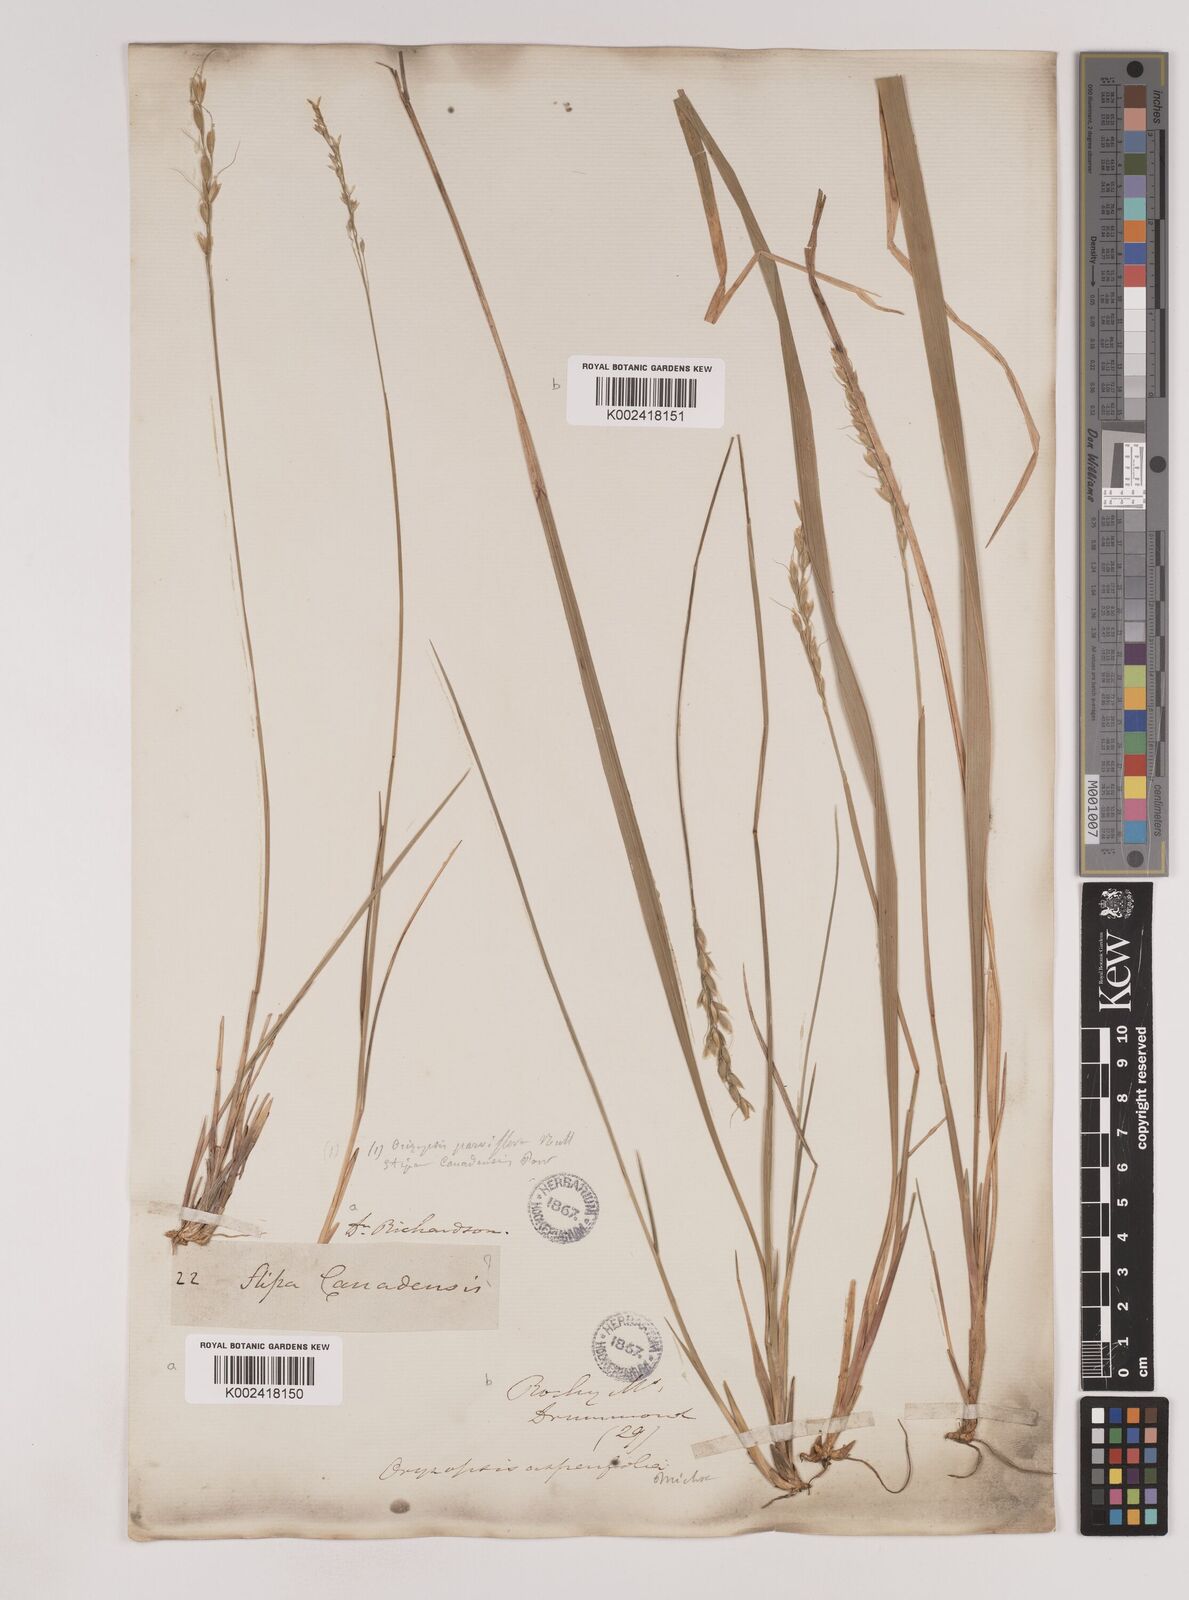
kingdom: Plantae
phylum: Tracheophyta
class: Liliopsida
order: Poales
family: Poaceae
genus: Oryzopsis
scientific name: Oryzopsis asperifolia
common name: Rough-leaved mountain rice
